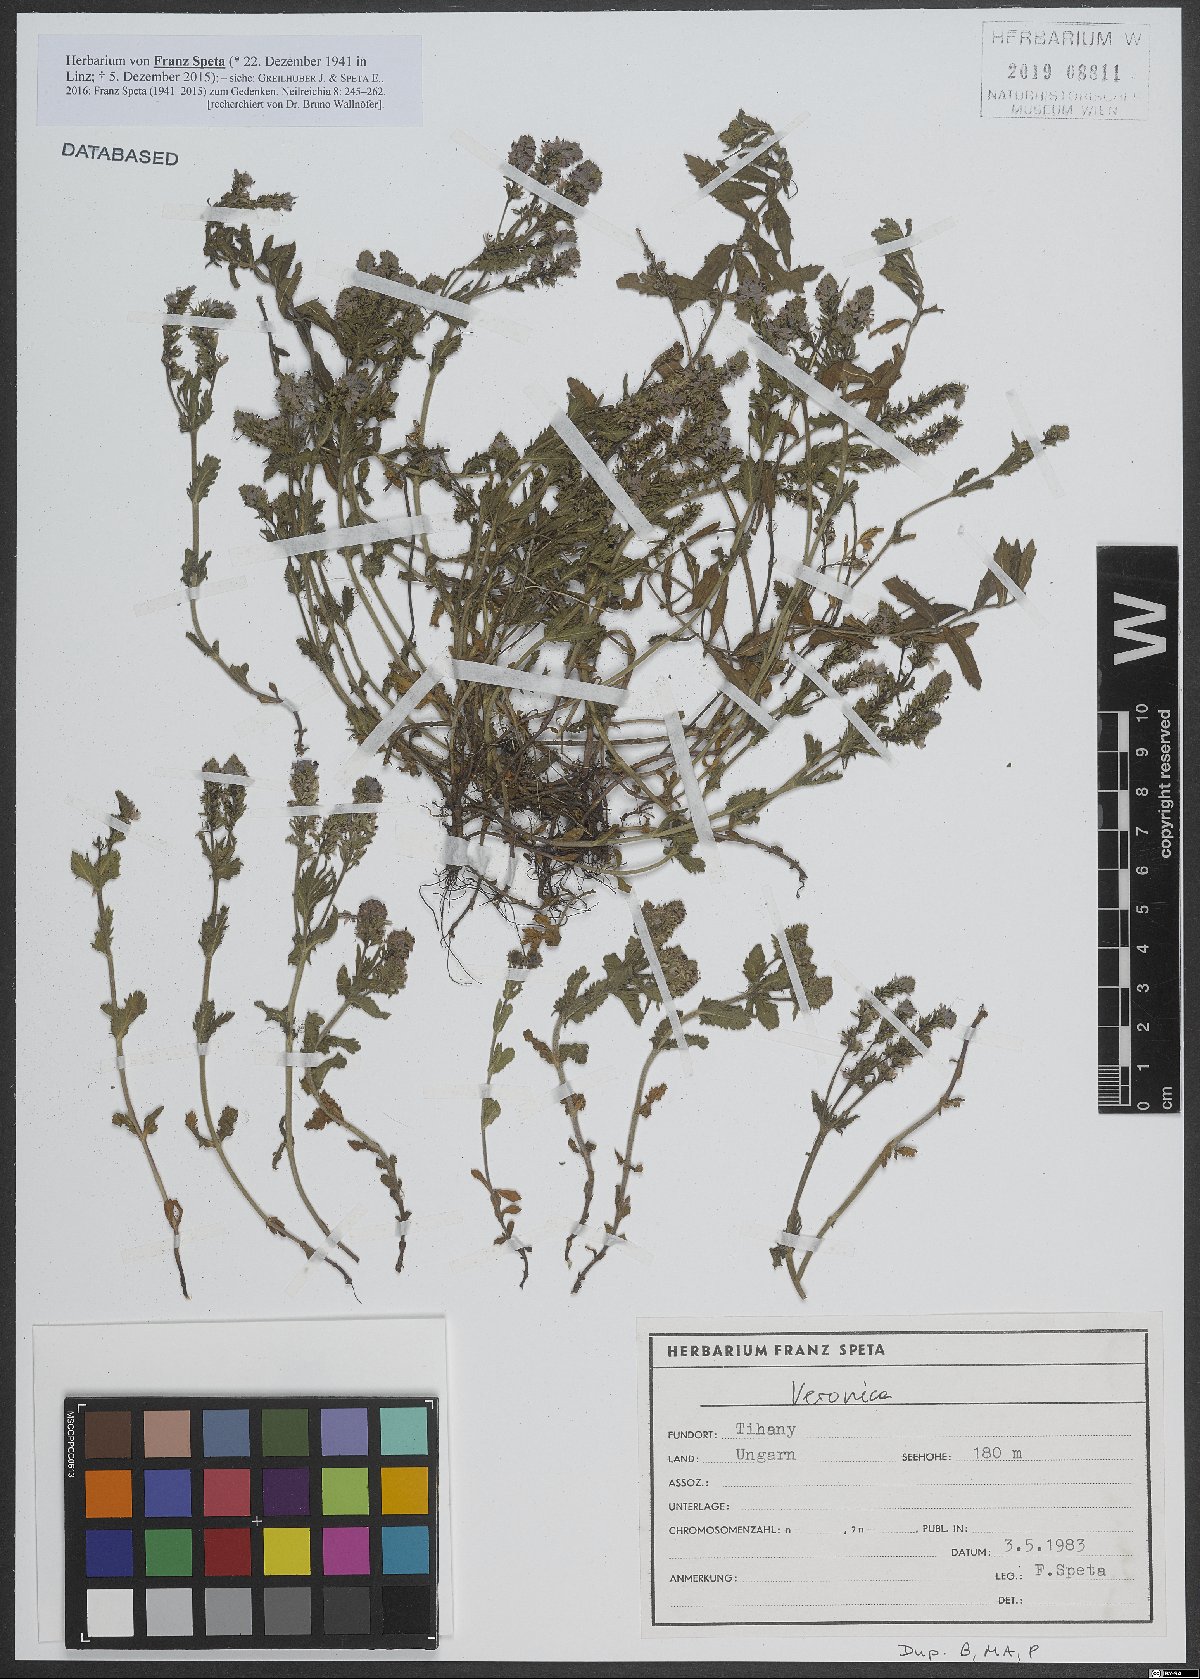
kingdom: Plantae
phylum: Tracheophyta
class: Magnoliopsida
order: Lamiales
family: Plantaginaceae
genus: Veronica
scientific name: Veronica
